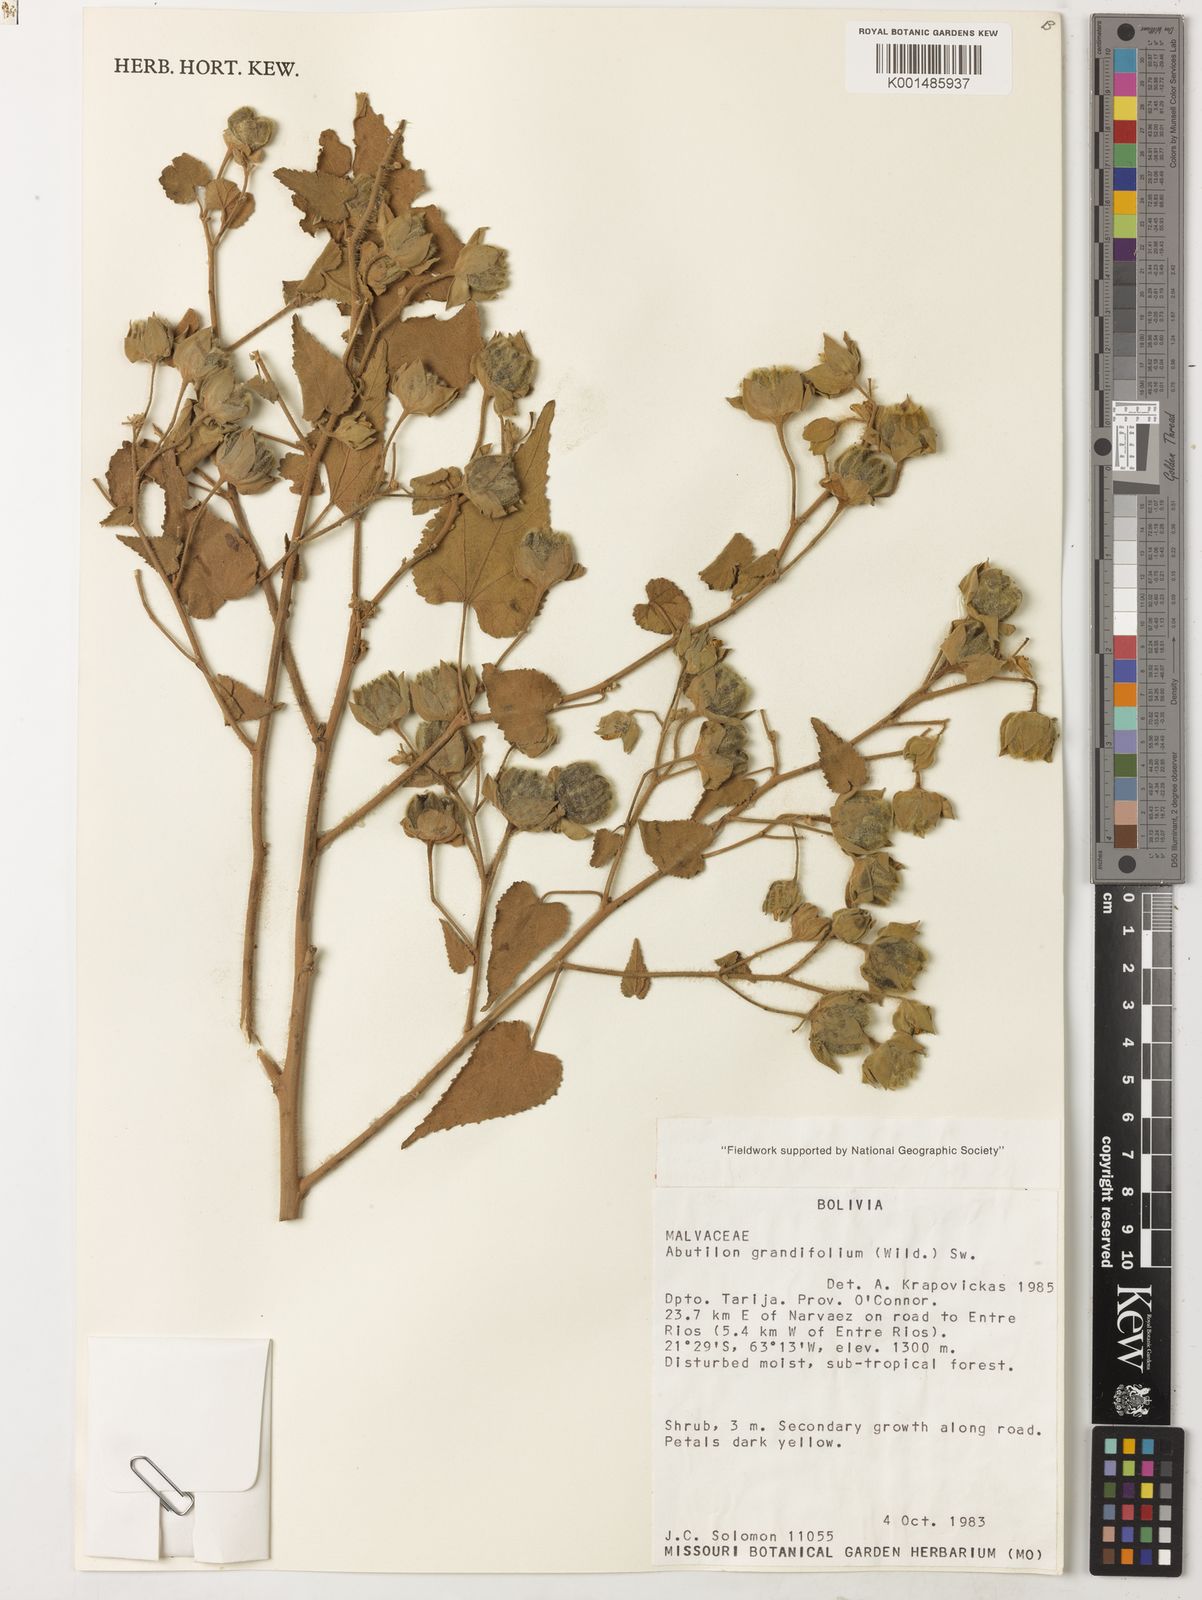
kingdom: Plantae
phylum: Tracheophyta
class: Magnoliopsida
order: Malvales
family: Malvaceae
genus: Abutilon
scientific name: Abutilon mollissimum
